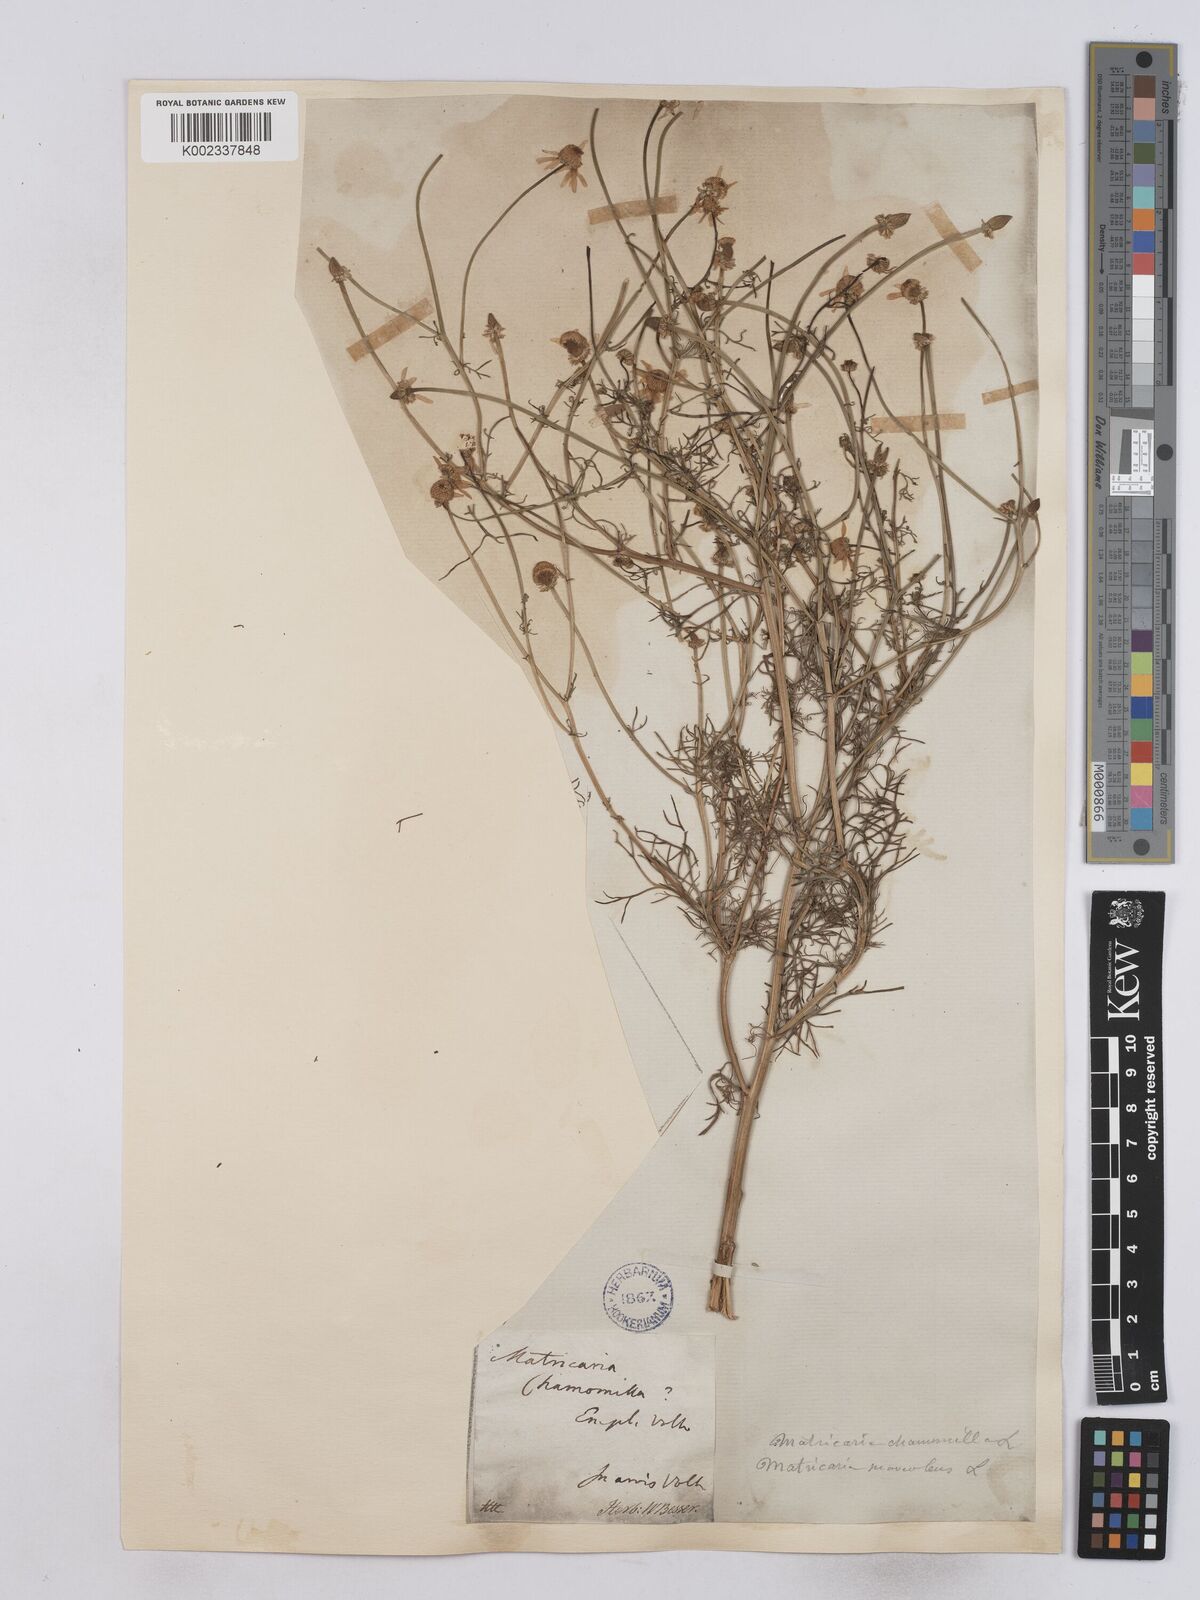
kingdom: Plantae
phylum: Tracheophyta
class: Magnoliopsida
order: Asterales
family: Asteraceae
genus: Matricaria
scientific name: Matricaria chamomilla
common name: Scented mayweed
